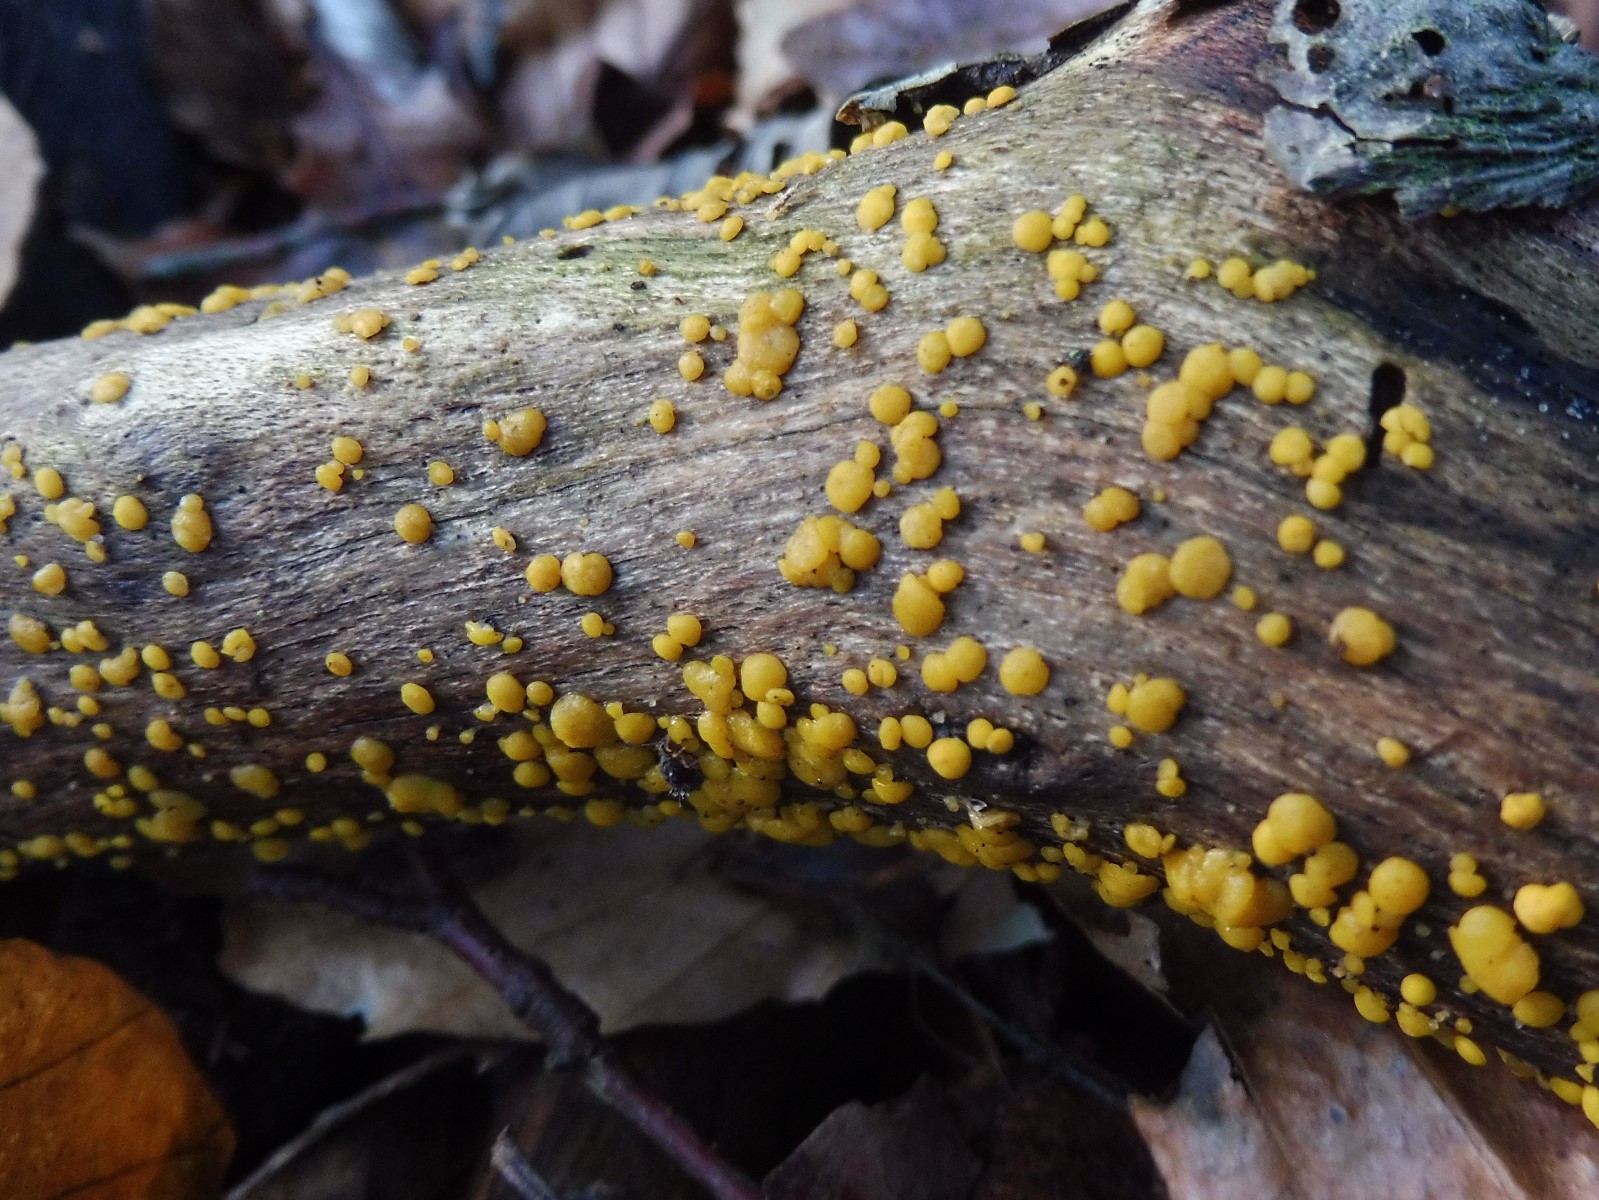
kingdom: Fungi
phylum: Ascomycota
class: Leotiomycetes
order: Helotiales
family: Pezizellaceae
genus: Calycina
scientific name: Calycina citrina
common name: almindelig gulskive
